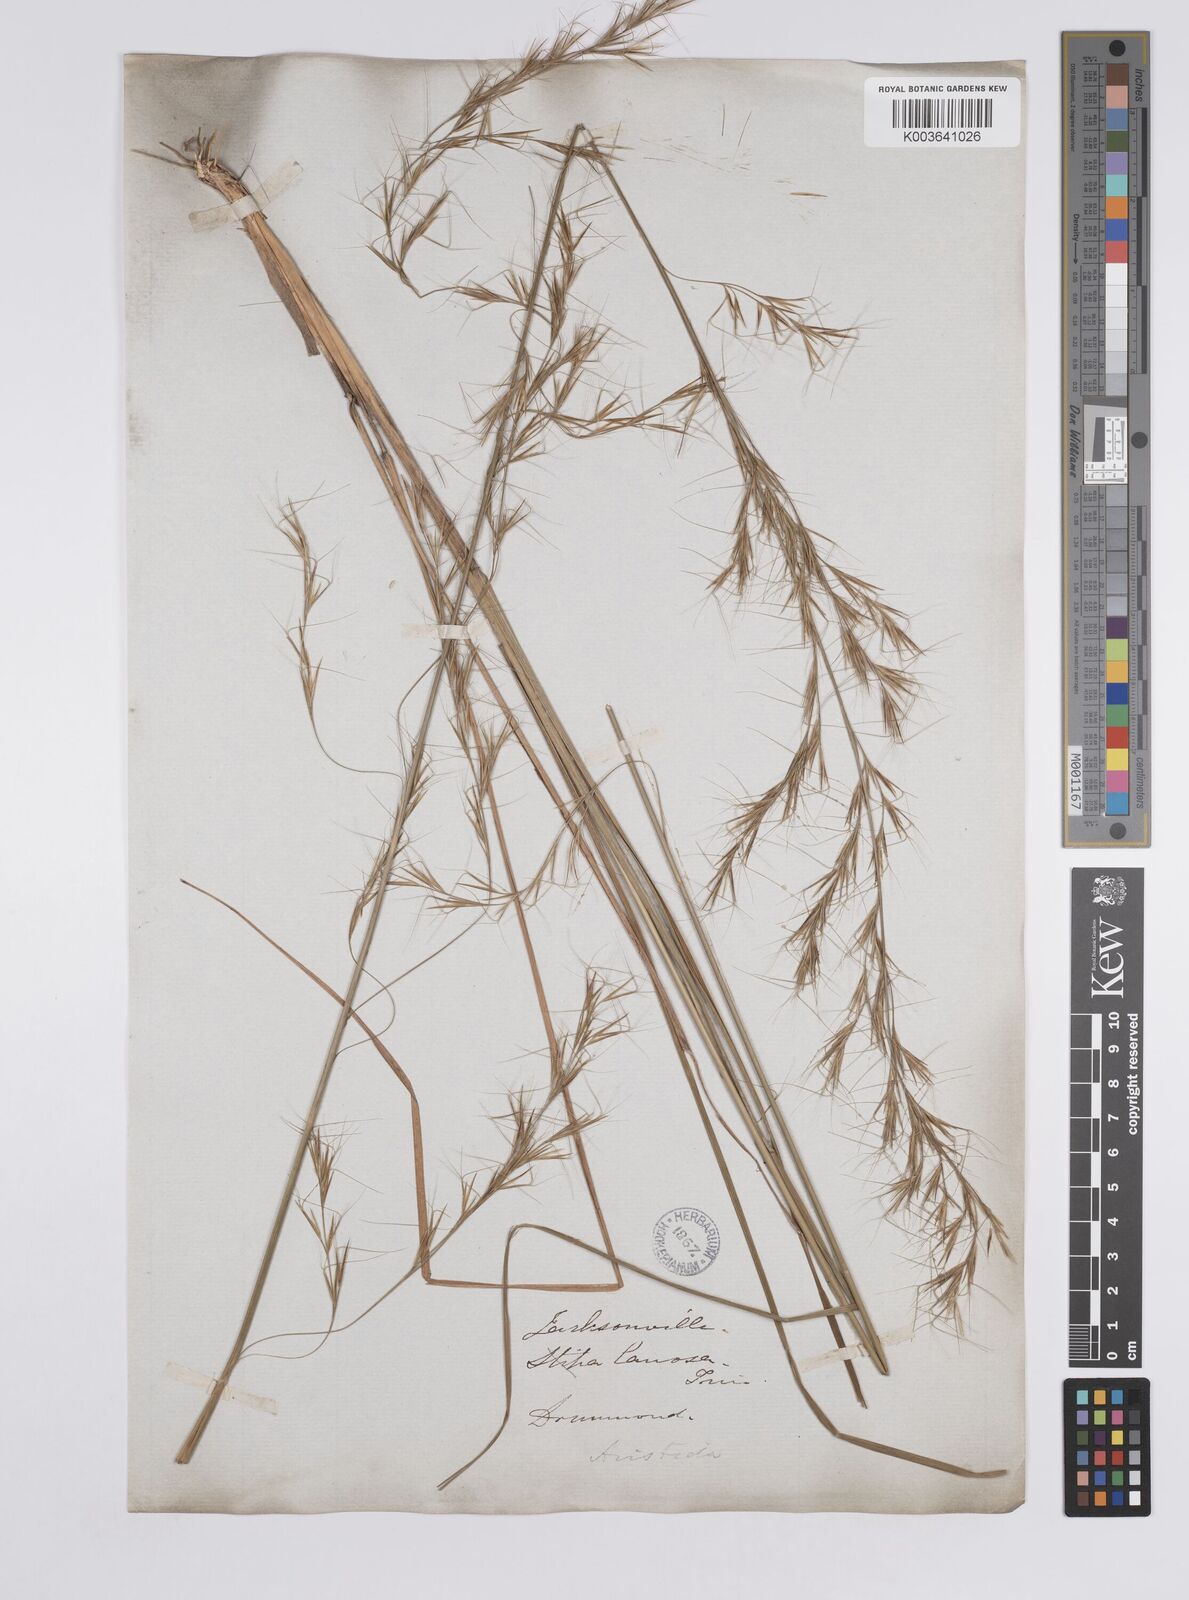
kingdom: Plantae
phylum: Tracheophyta
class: Liliopsida
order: Poales
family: Poaceae
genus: Aristida
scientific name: Aristida lanosa
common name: Woolly three-awn
